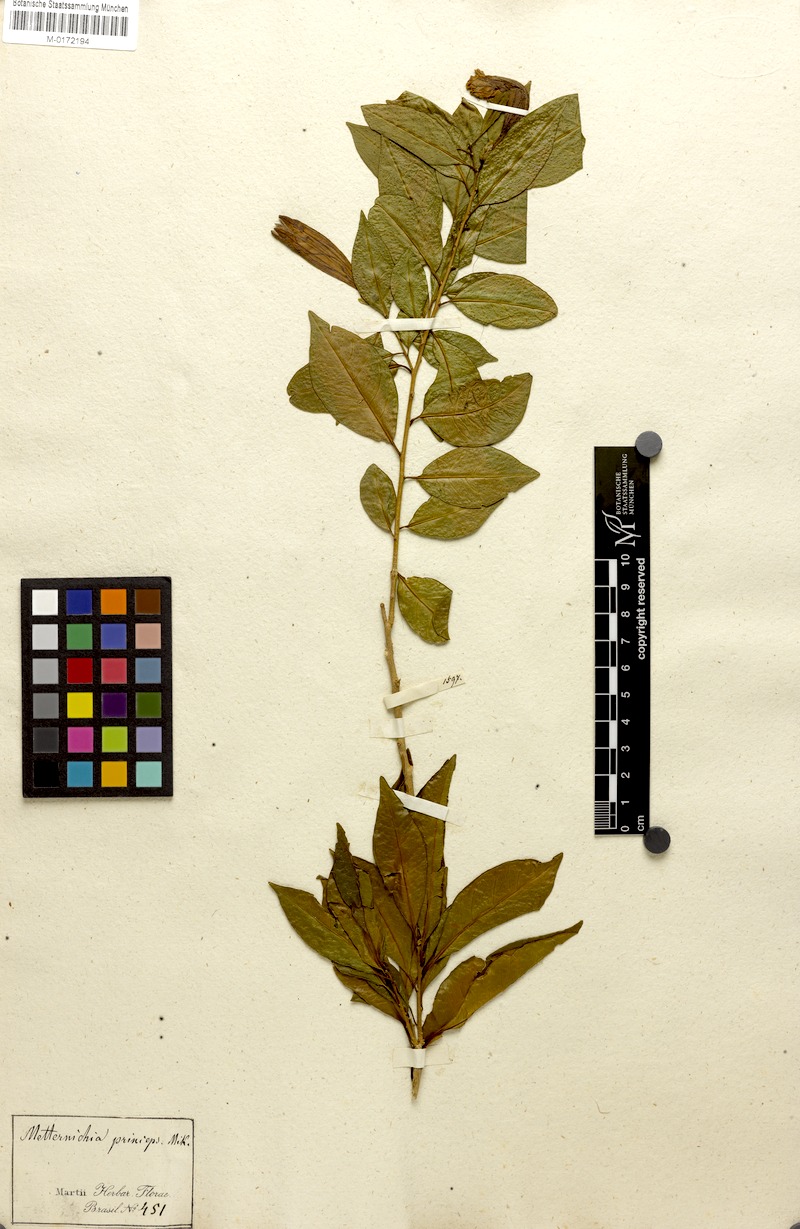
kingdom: Plantae
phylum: Tracheophyta
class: Magnoliopsida
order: Solanales
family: Solanaceae
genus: Metternichia
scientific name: Metternichia princeps
